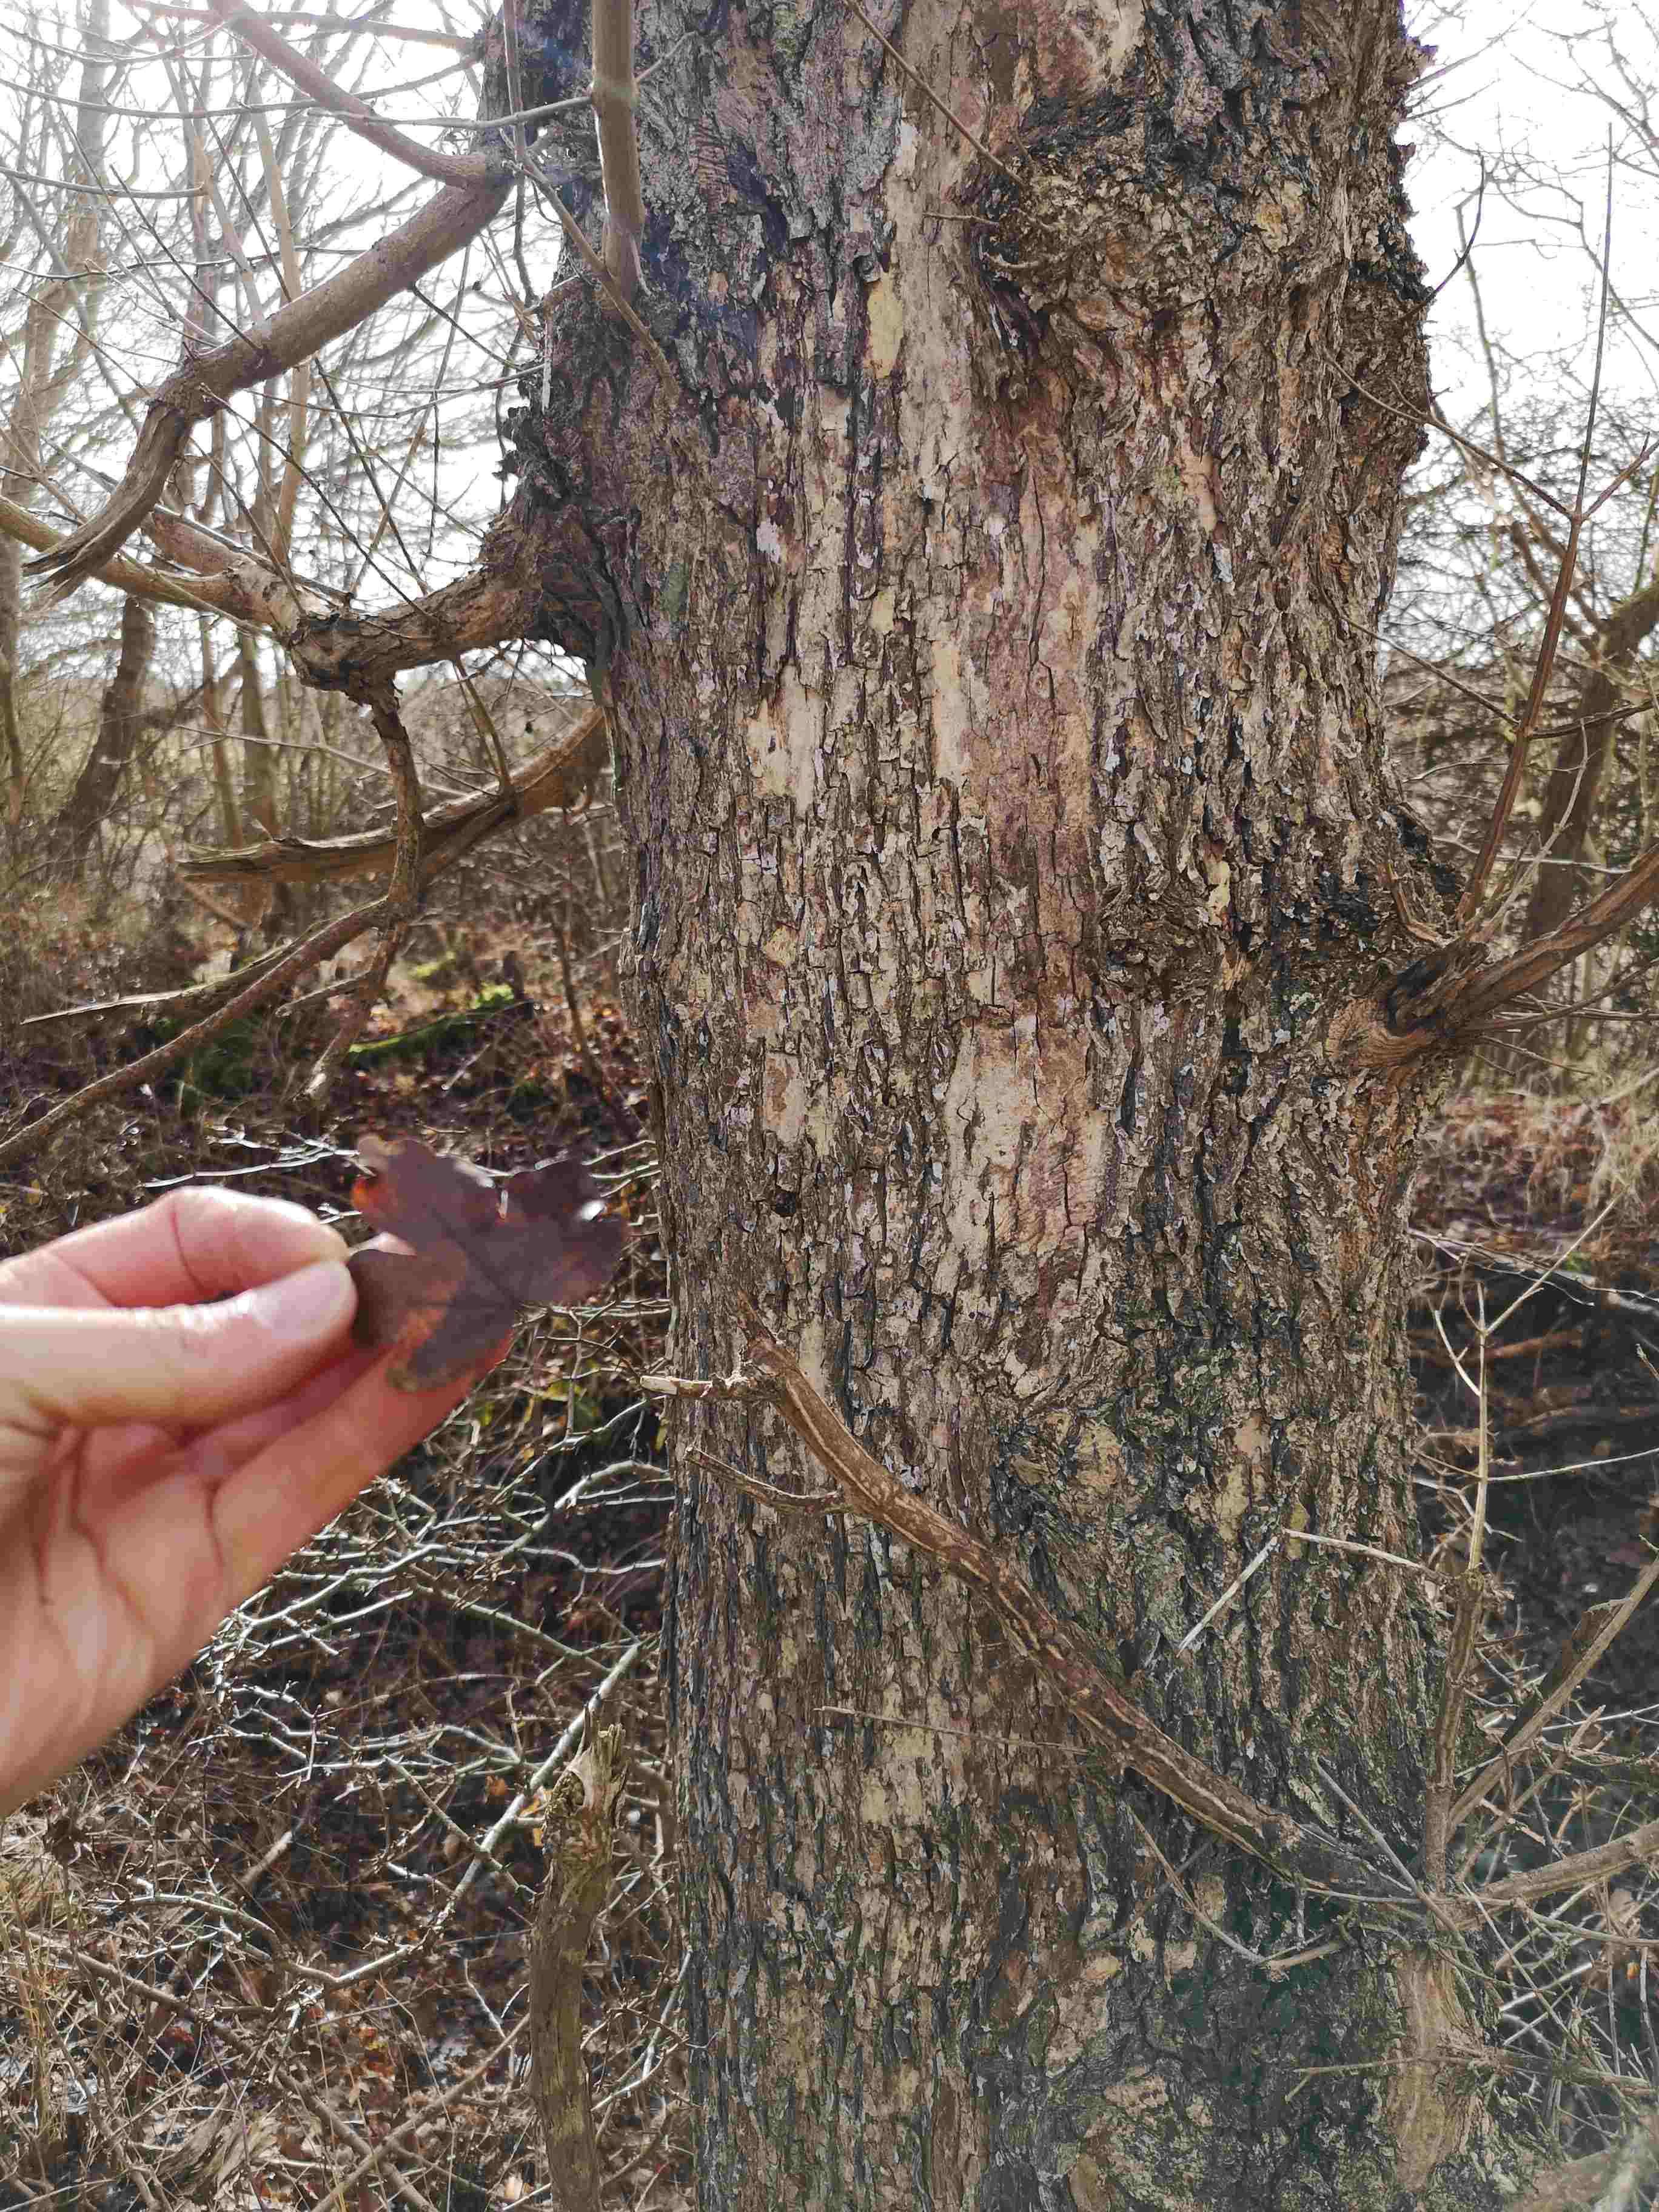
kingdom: Fungi
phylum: Basidiomycota
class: Agaricomycetes
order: Agaricales
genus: Dendrothele
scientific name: Dendrothele acerina
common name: navr-kalkplet
